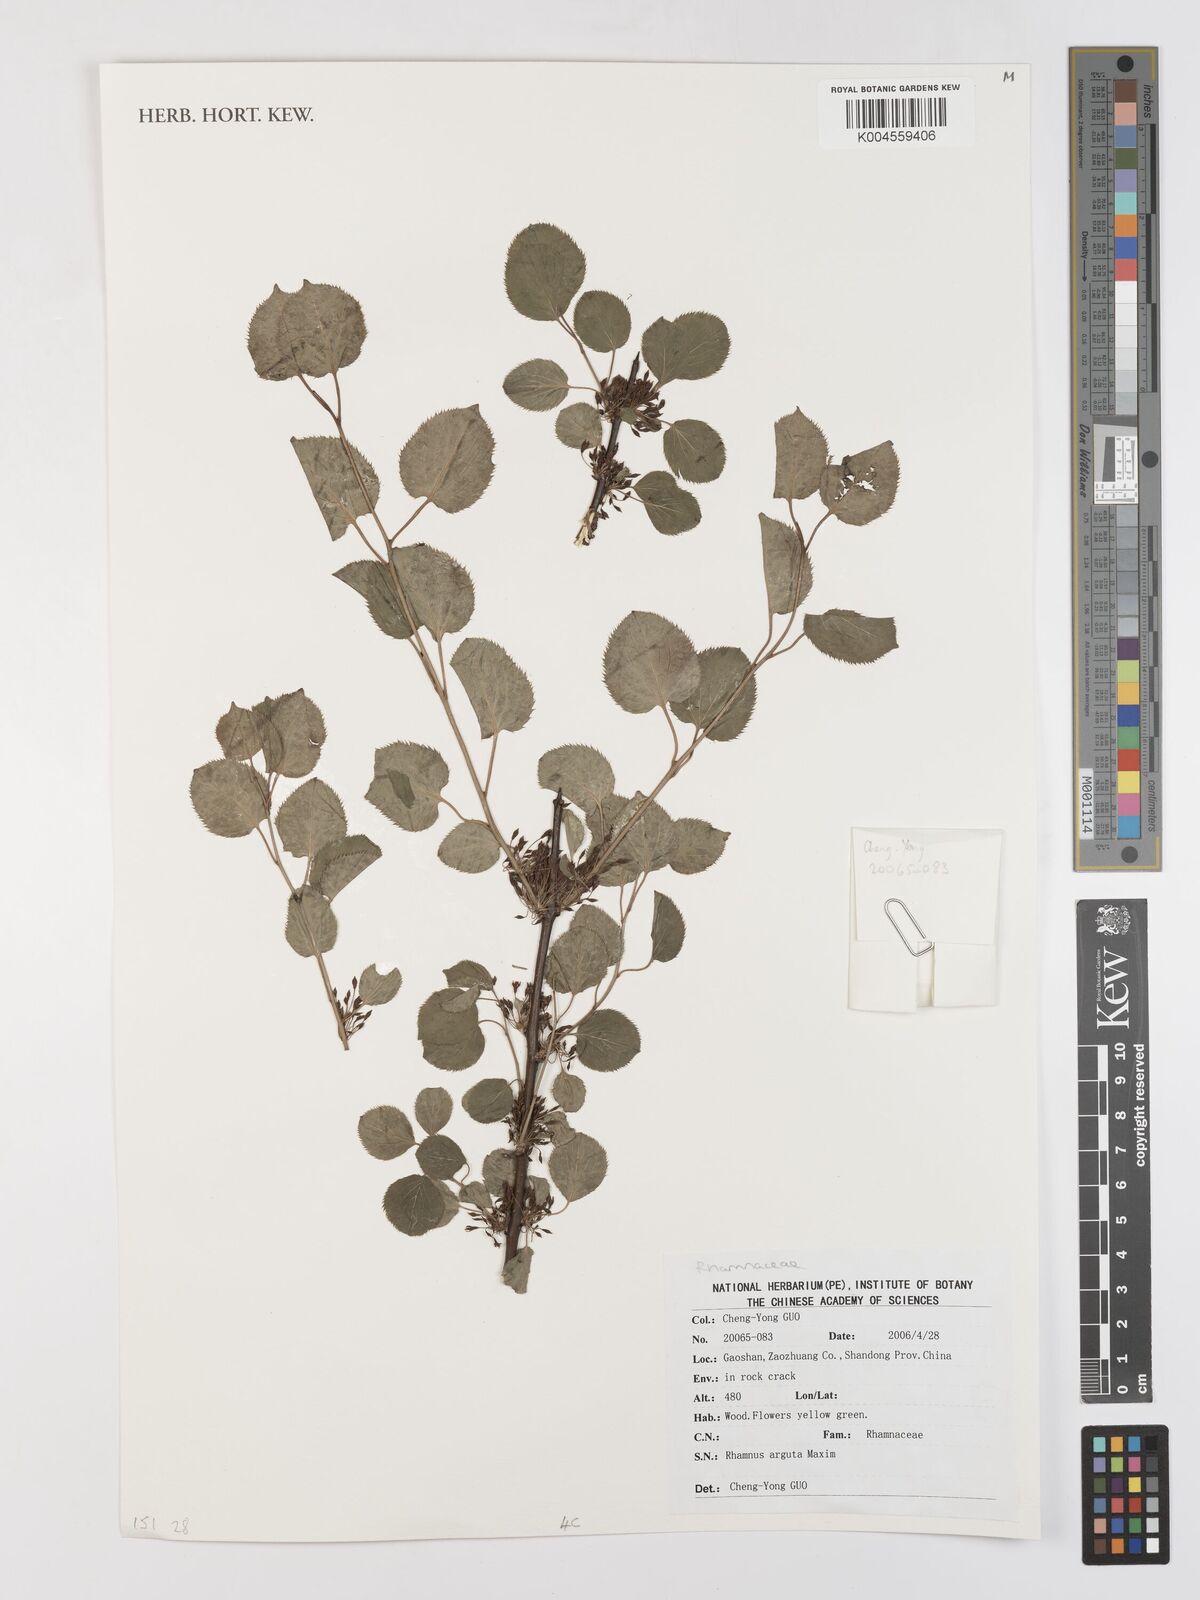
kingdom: Plantae
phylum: Tracheophyta
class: Magnoliopsida
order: Rosales
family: Rhamnaceae
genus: Rhamnus
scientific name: Rhamnus arguta
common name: Sharp-tooth buckthorn
